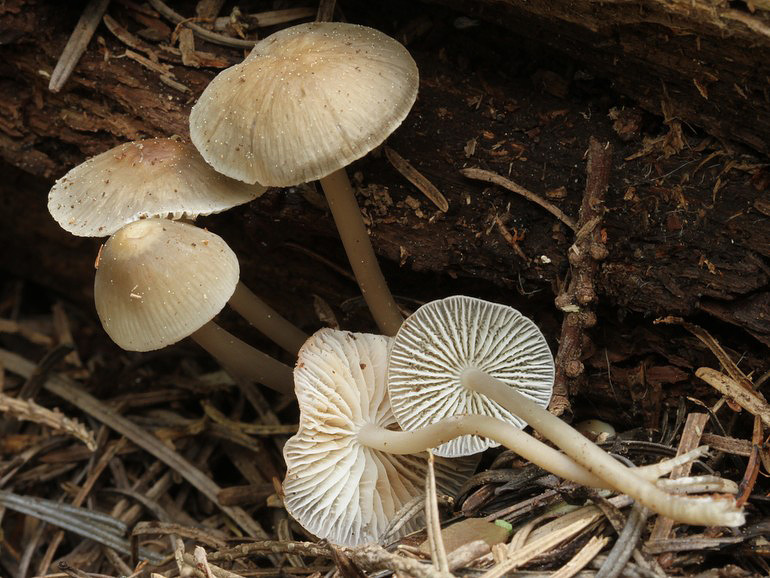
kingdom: Fungi
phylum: Basidiomycota
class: Agaricomycetes
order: Agaricales
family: Mycenaceae
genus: Mycena
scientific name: Mycena galericulata
